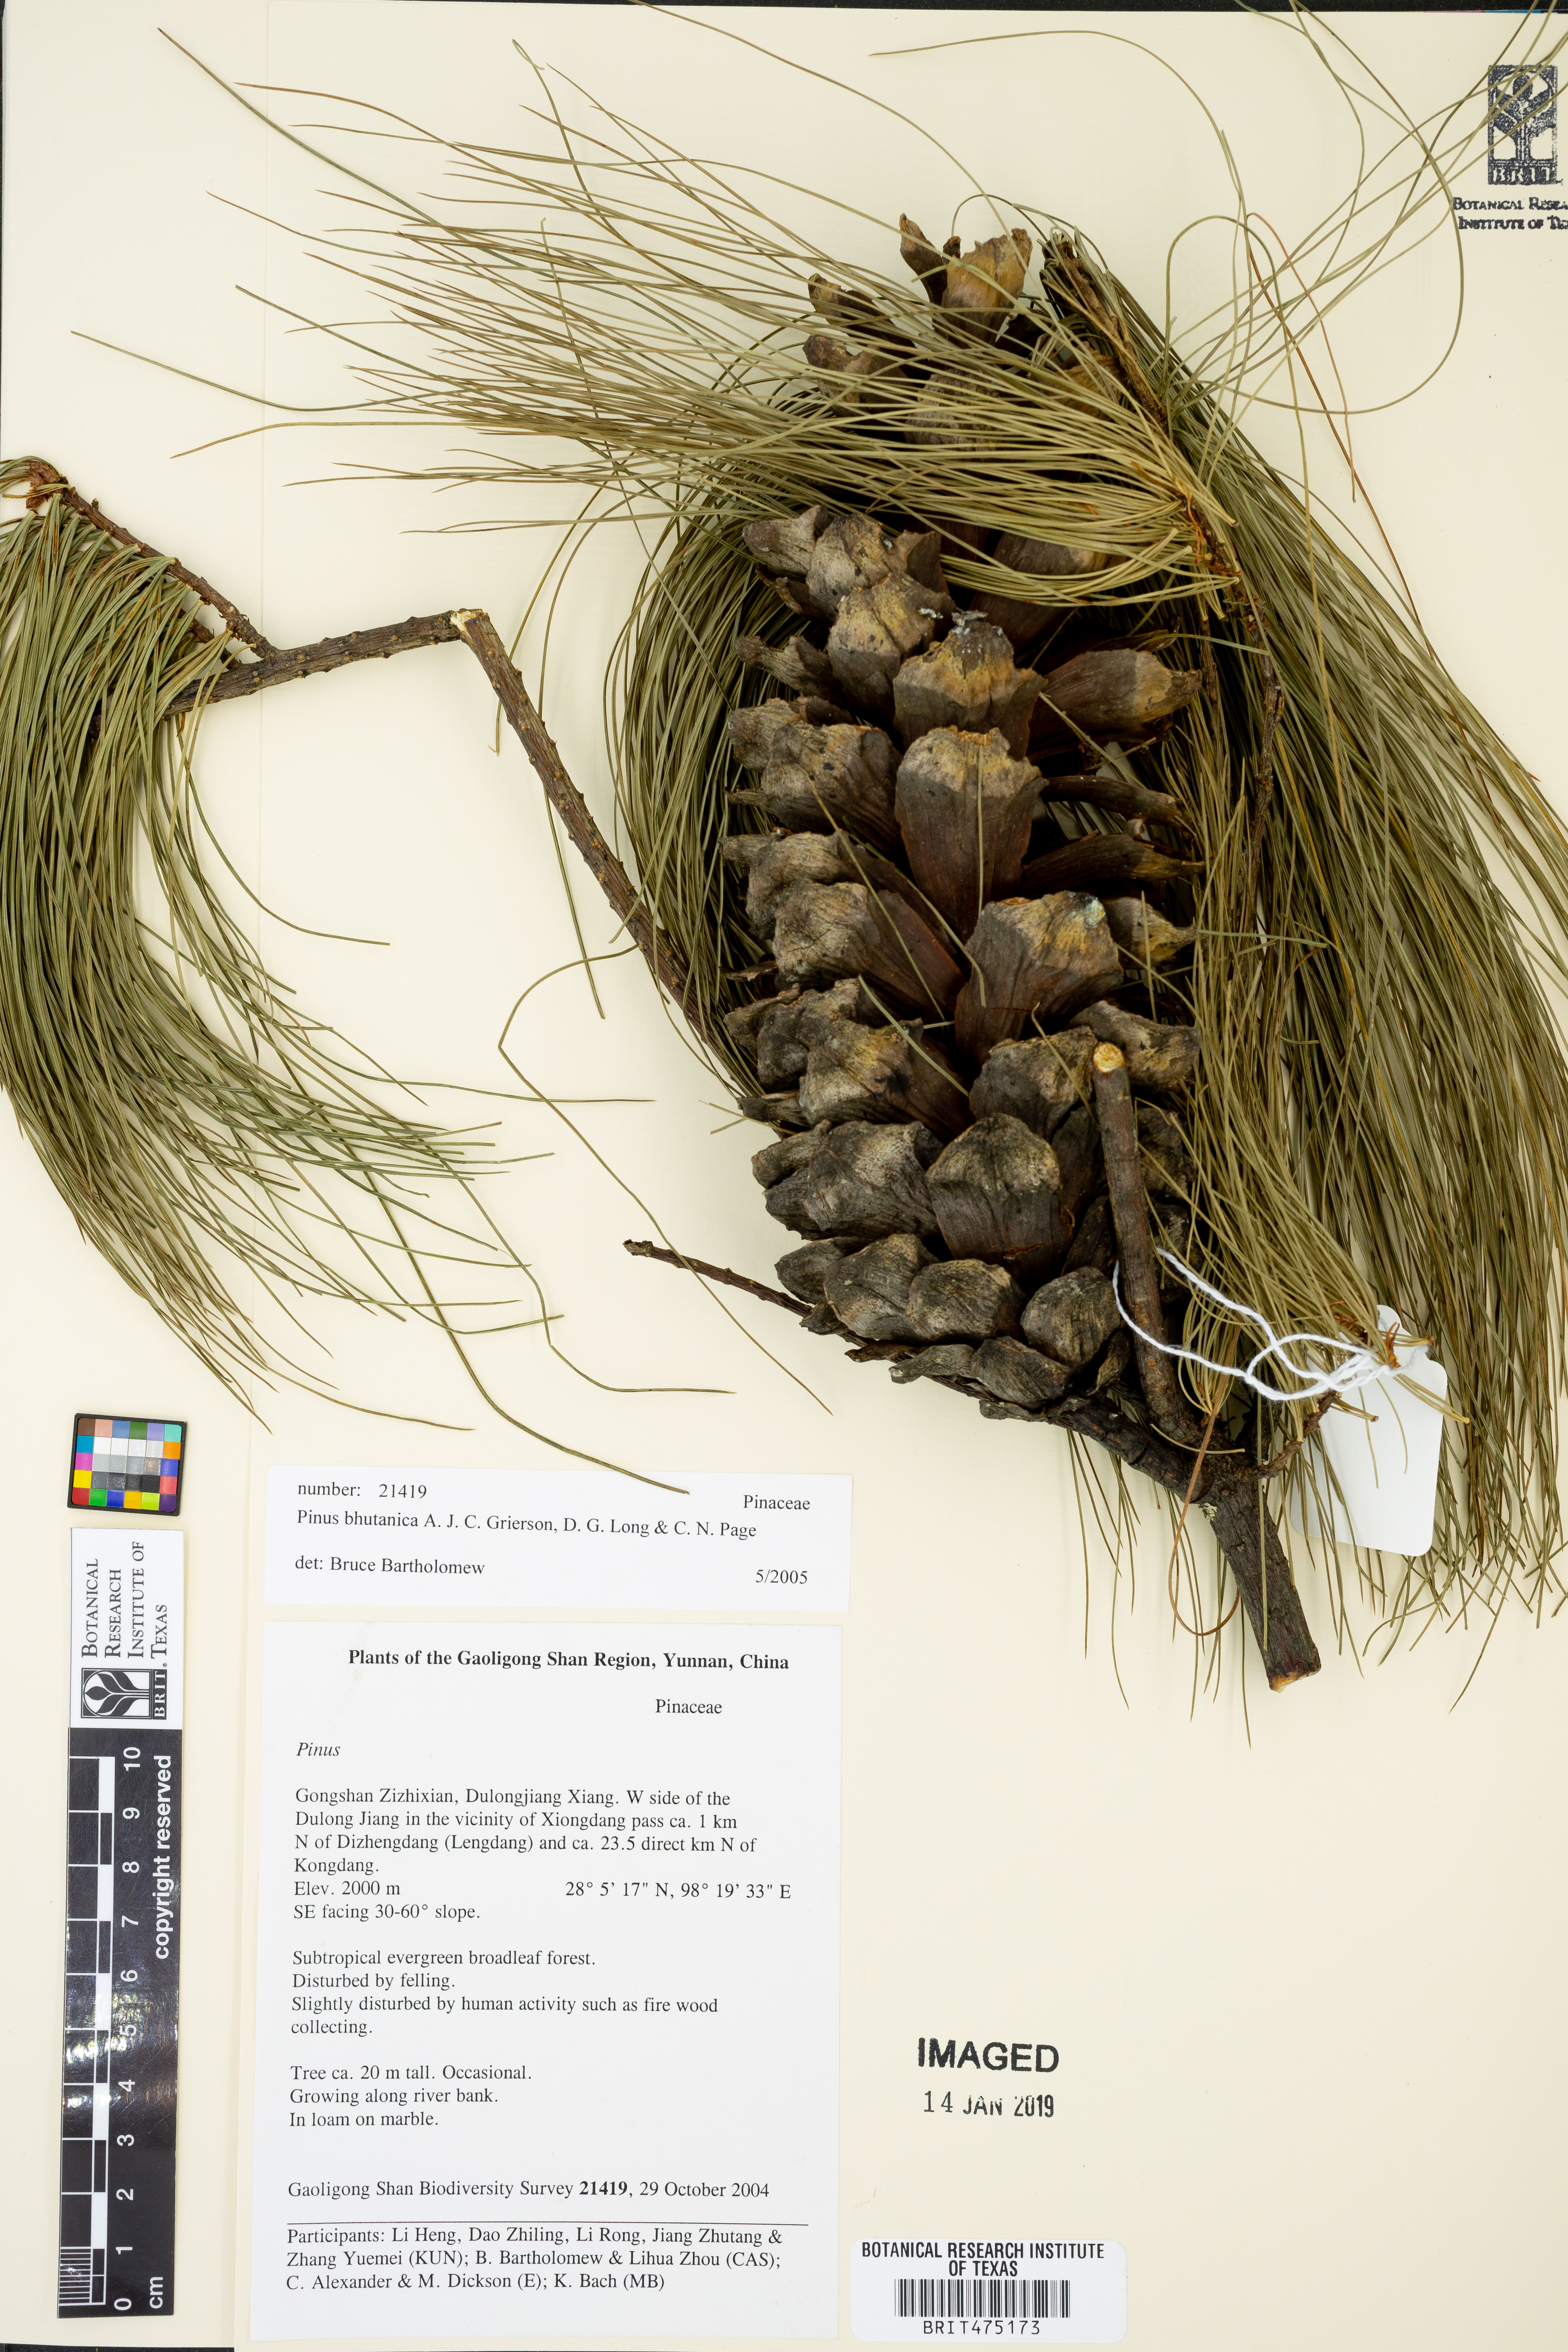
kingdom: Plantae
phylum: Tracheophyta
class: Pinopsida
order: Pinales
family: Pinaceae
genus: Pinus
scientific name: Pinus bhutanica
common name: Bhutan pine
